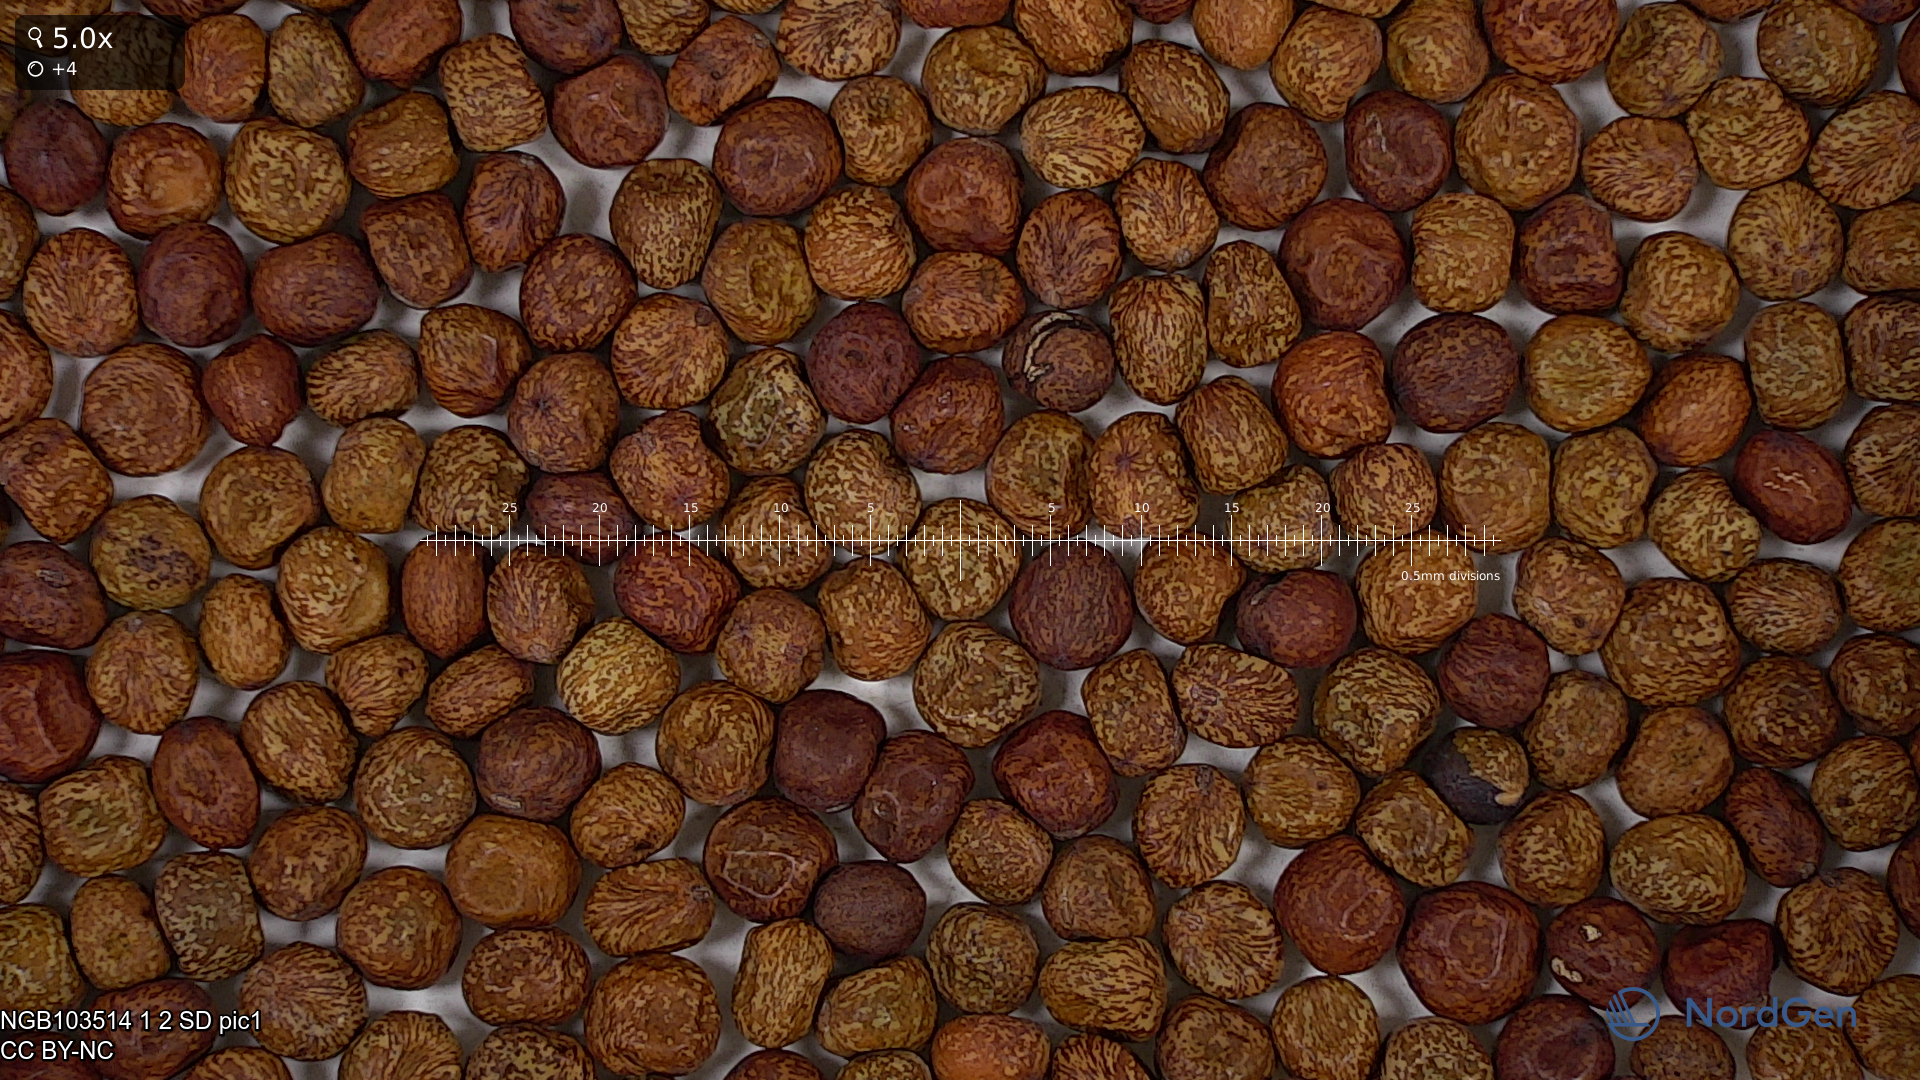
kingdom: Plantae
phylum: Tracheophyta
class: Magnoliopsida
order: Fabales
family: Fabaceae
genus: Lathyrus
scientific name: Lathyrus oleraceus
